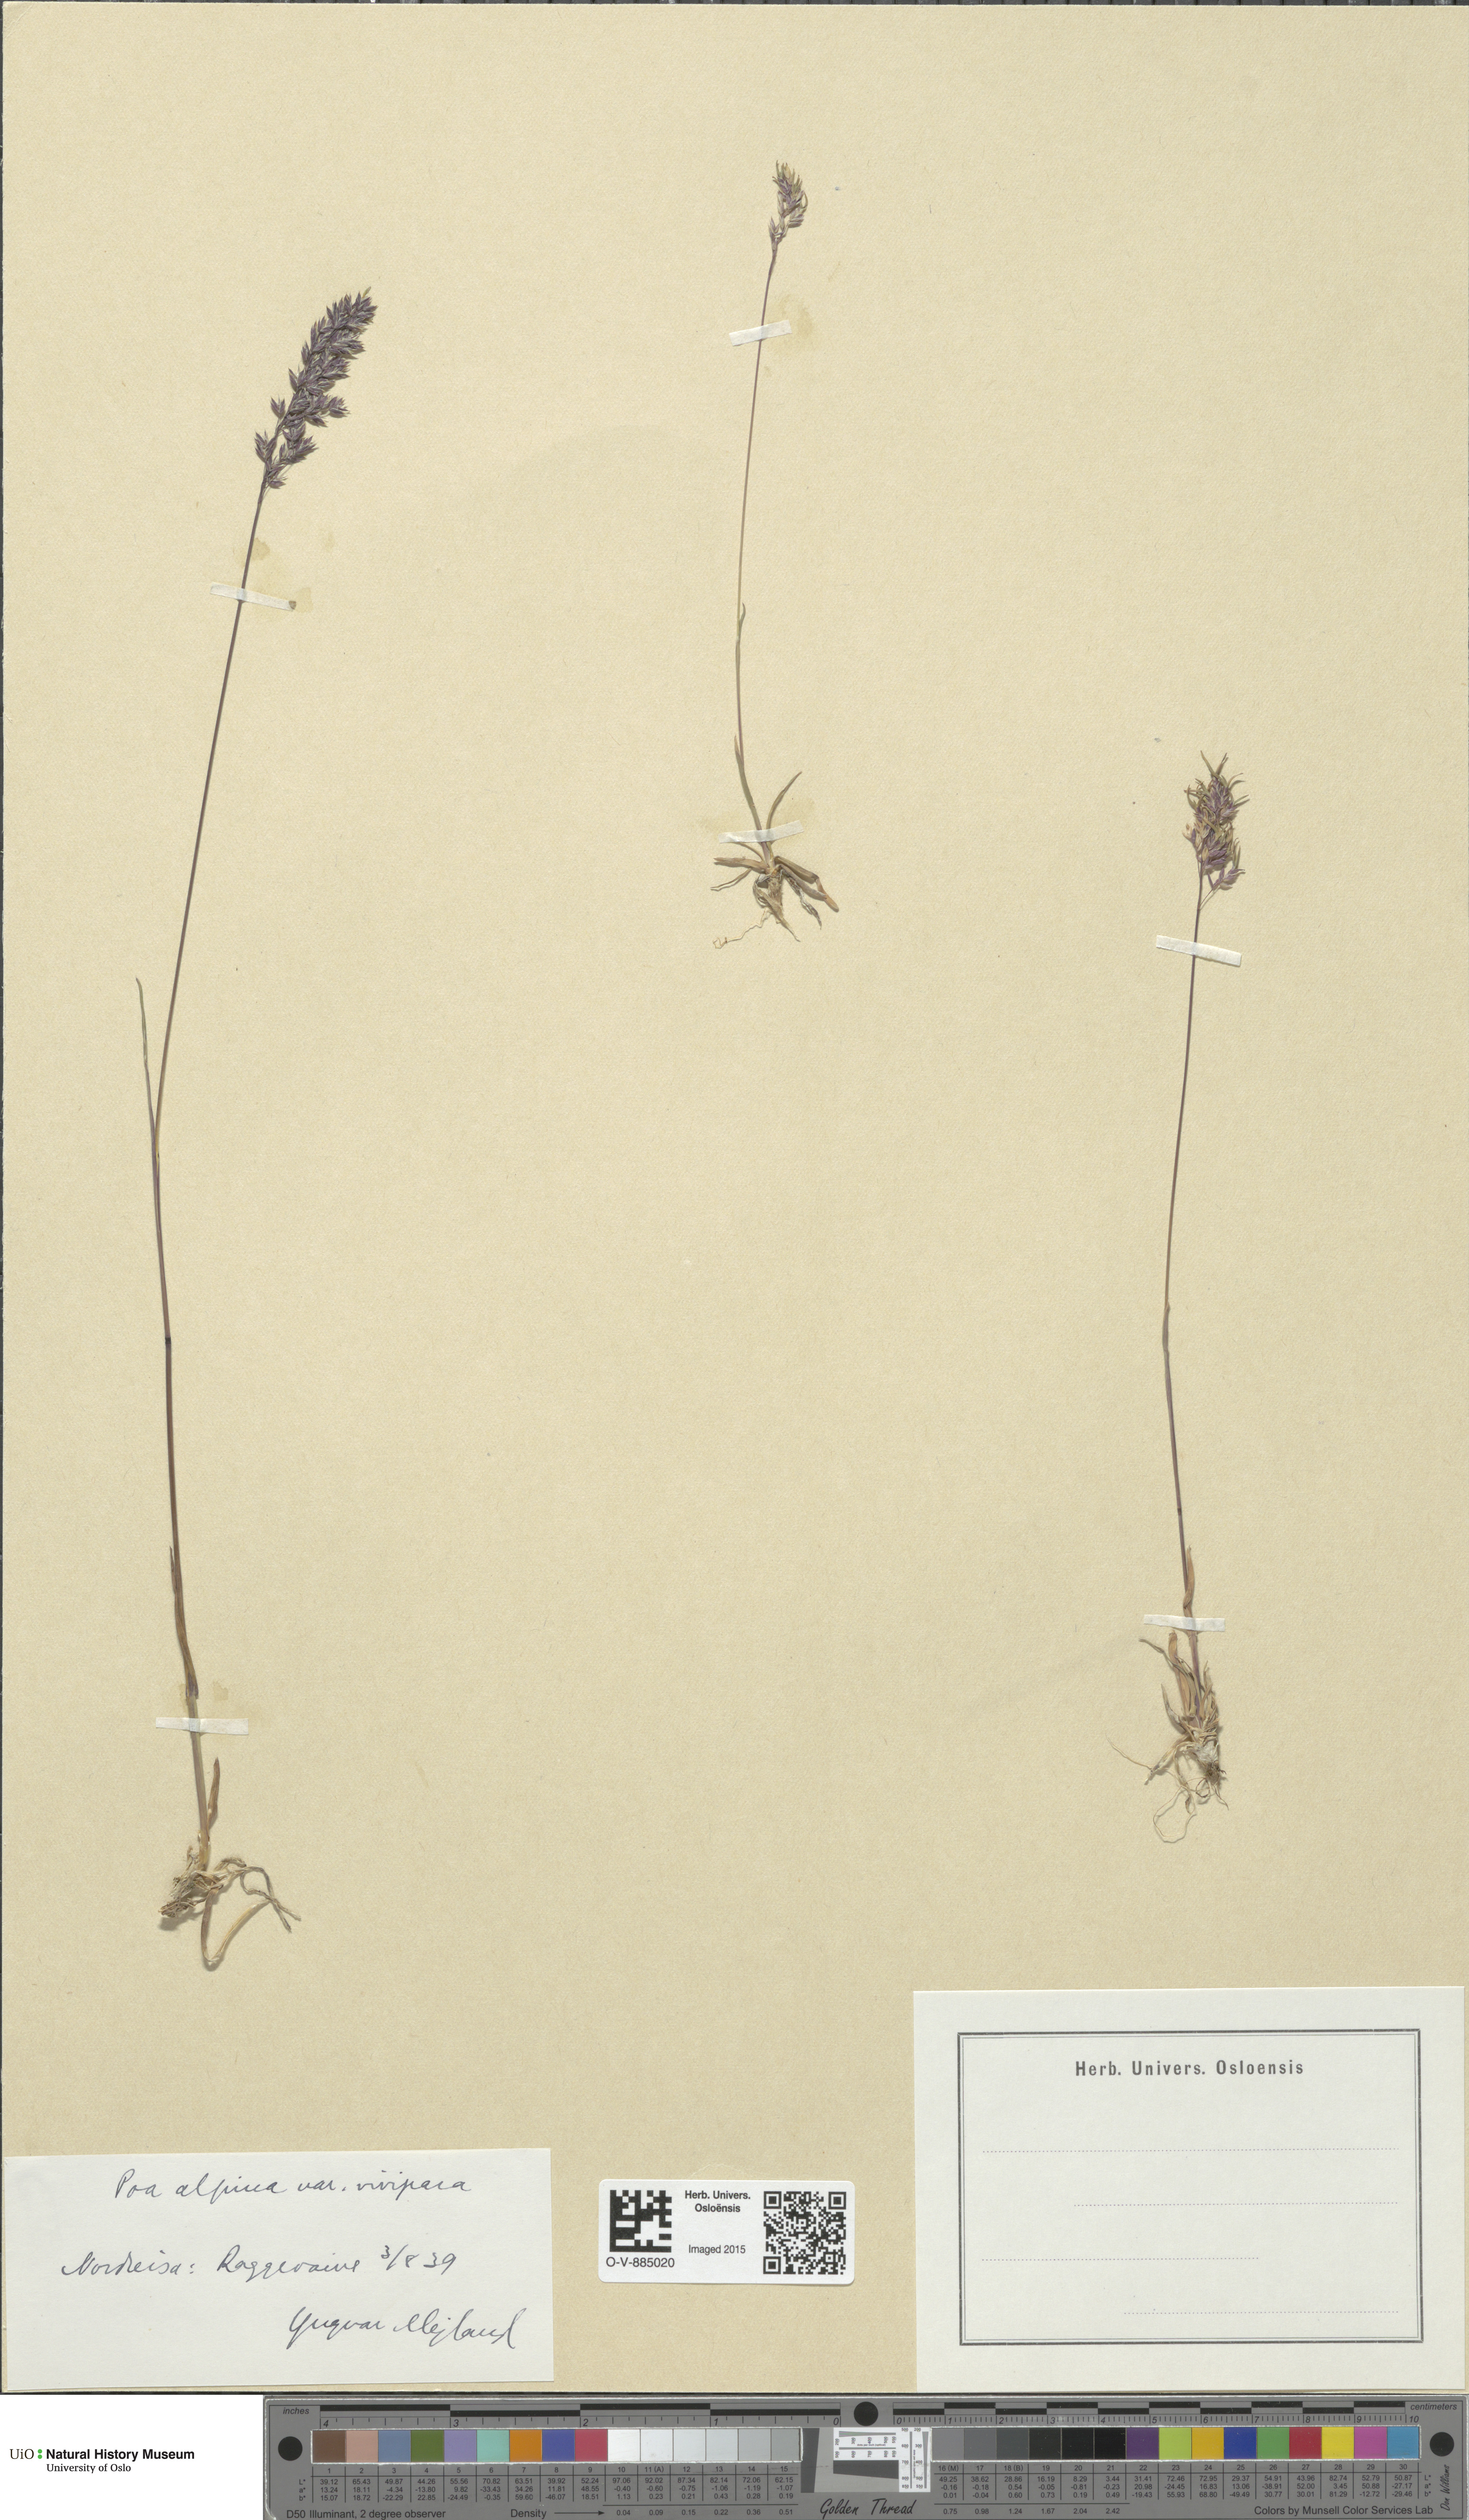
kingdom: Plantae
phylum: Tracheophyta
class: Liliopsida
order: Poales
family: Poaceae
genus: Poa
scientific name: Poa alpina
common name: Alpine bluegrass
